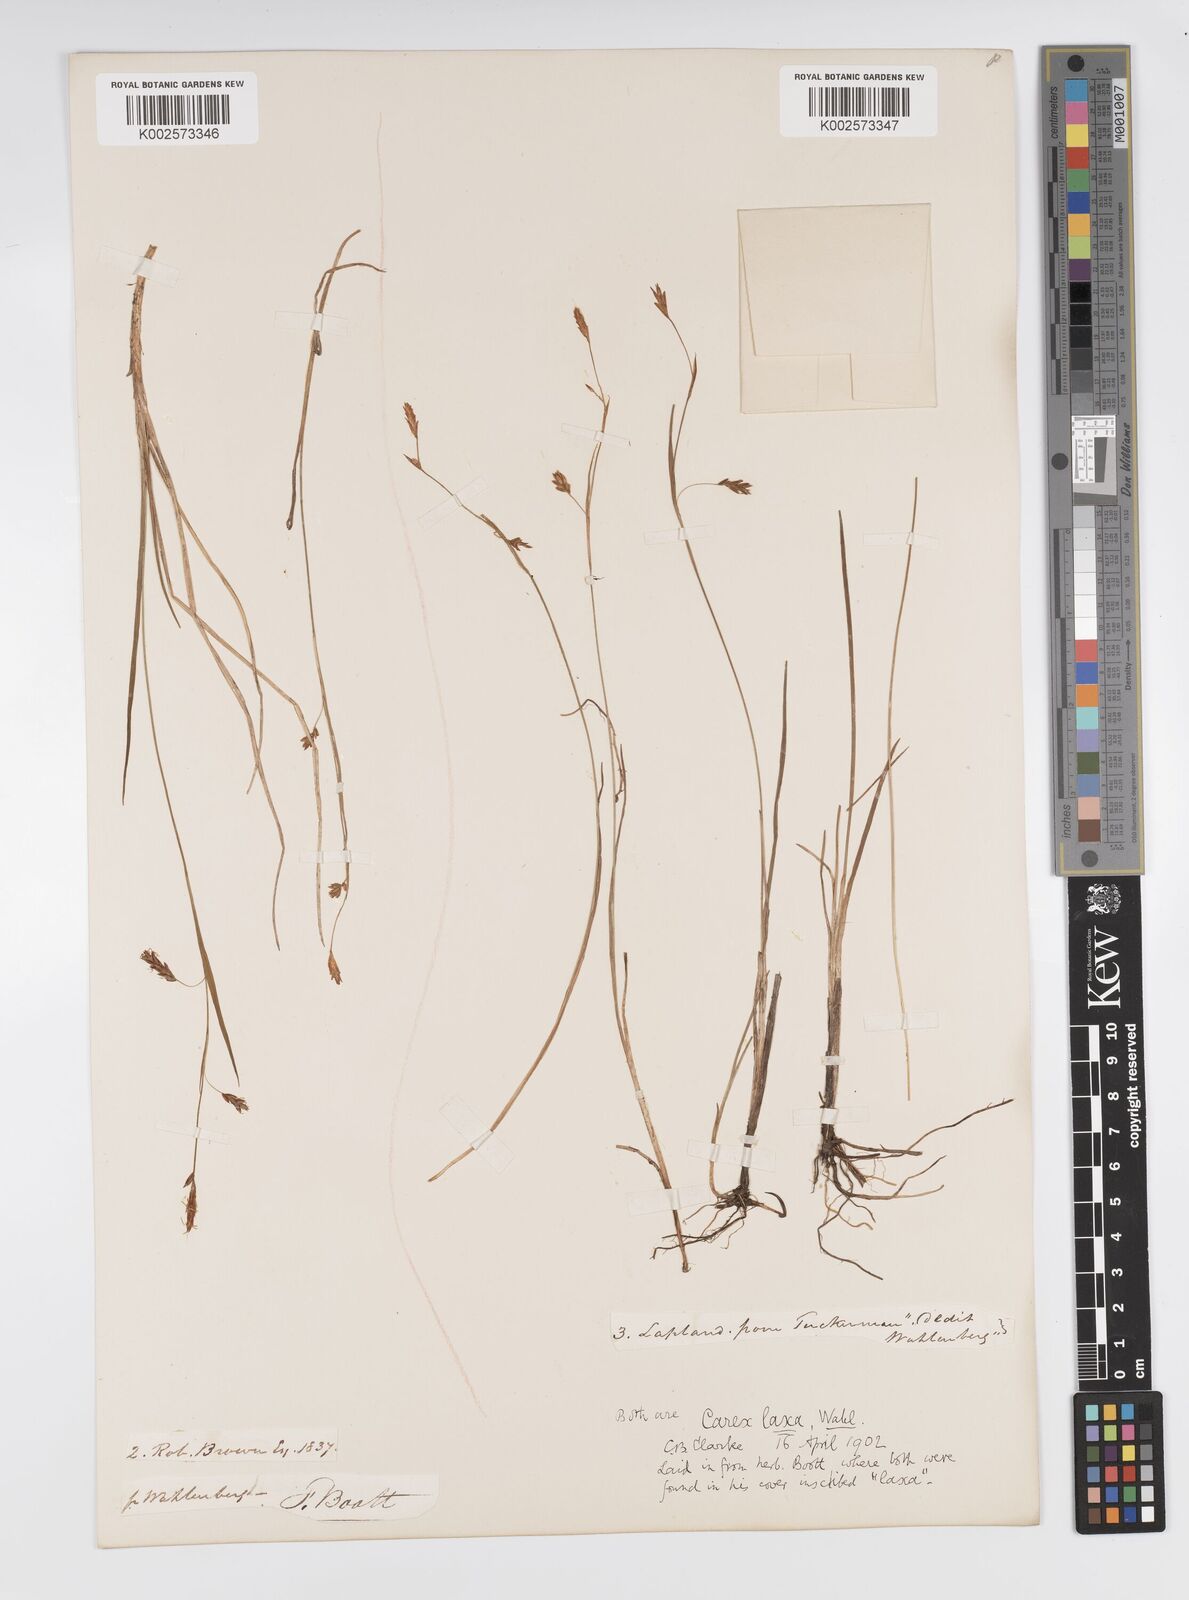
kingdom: Plantae
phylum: Tracheophyta
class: Liliopsida
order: Poales
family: Cyperaceae
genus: Carex
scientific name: Carex laxa
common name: Weak sedge
